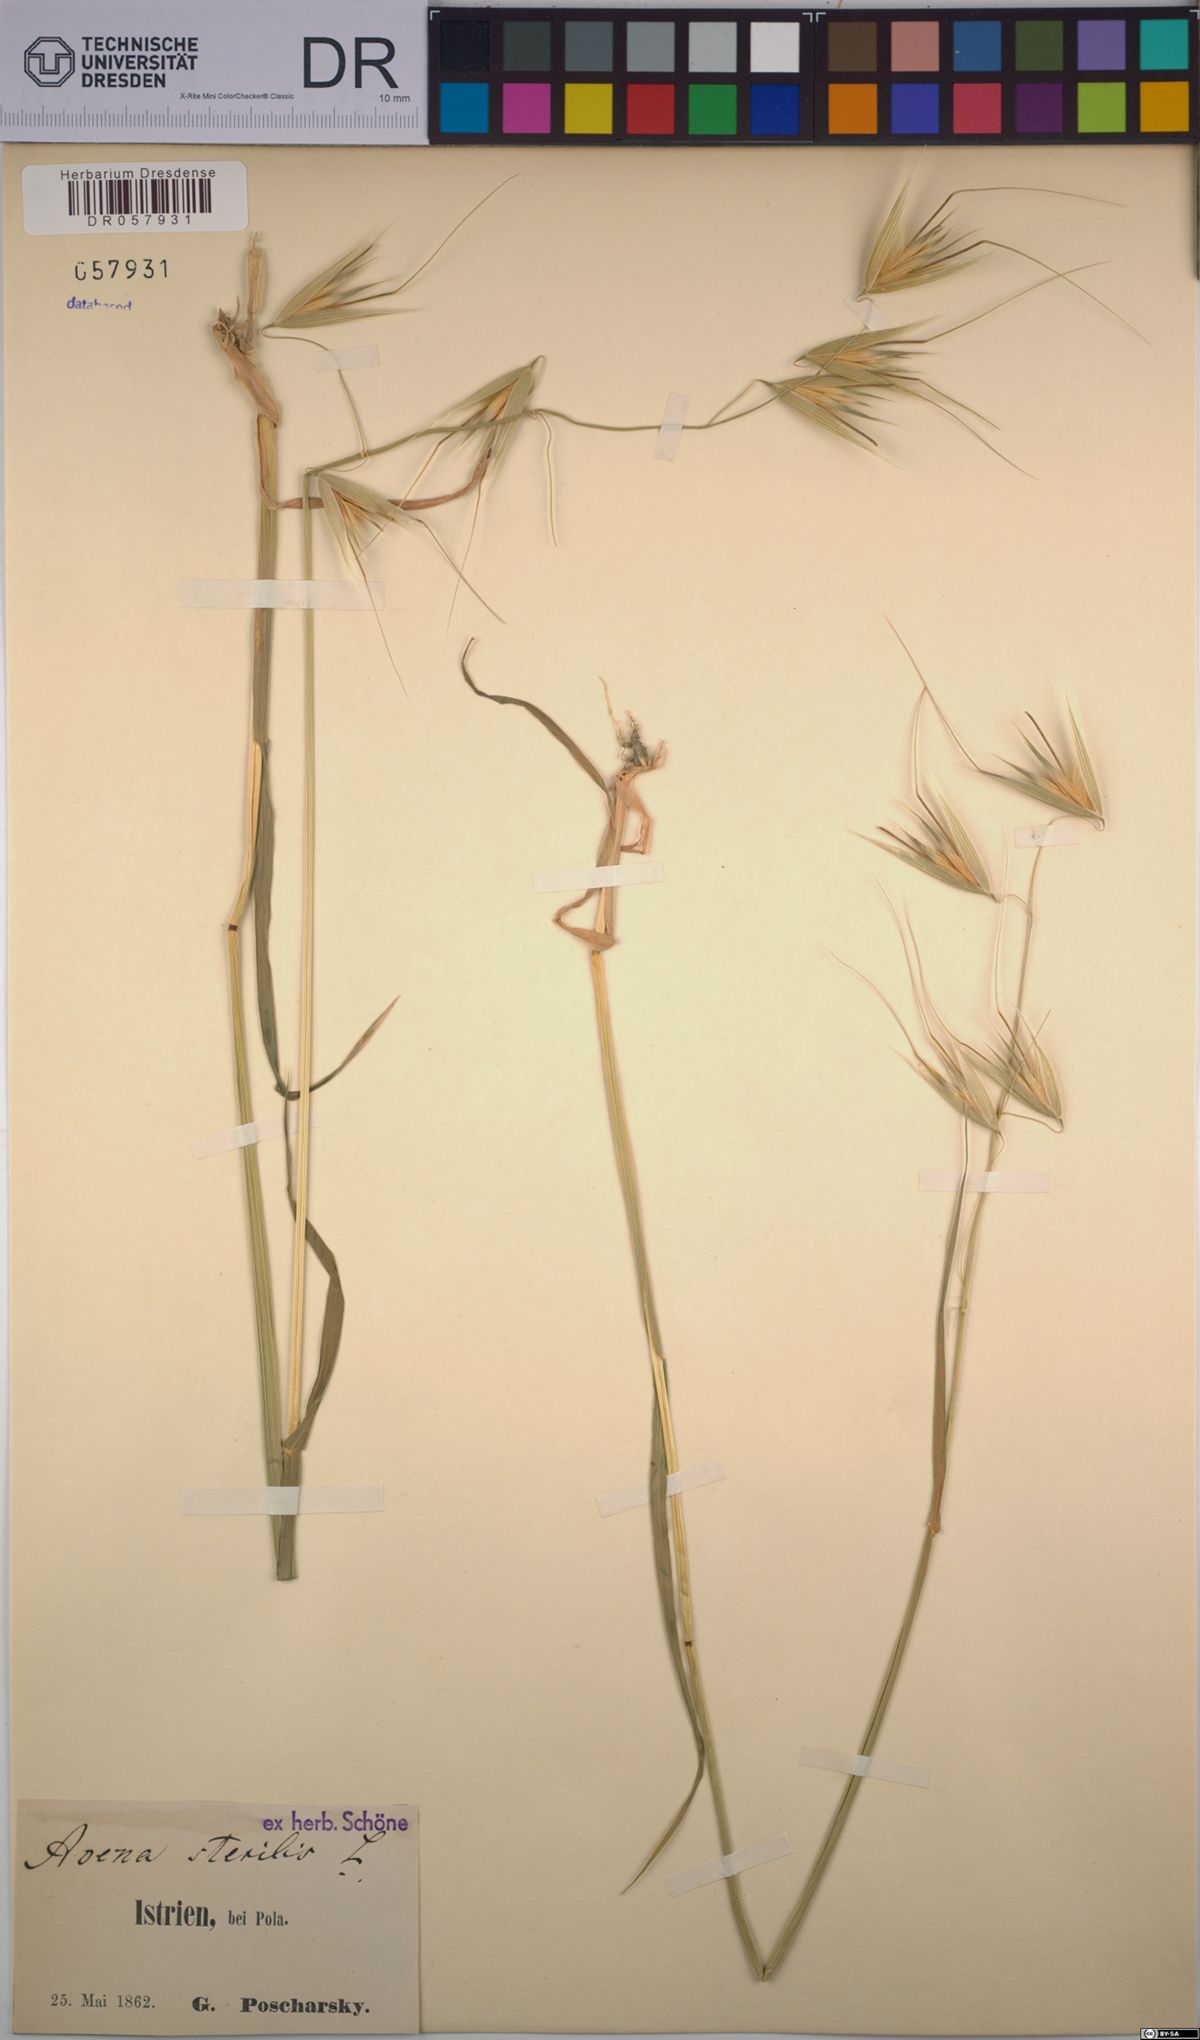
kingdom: Plantae
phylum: Tracheophyta
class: Liliopsida
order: Poales
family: Poaceae
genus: Avena
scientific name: Avena sterilis
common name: Animated oat
